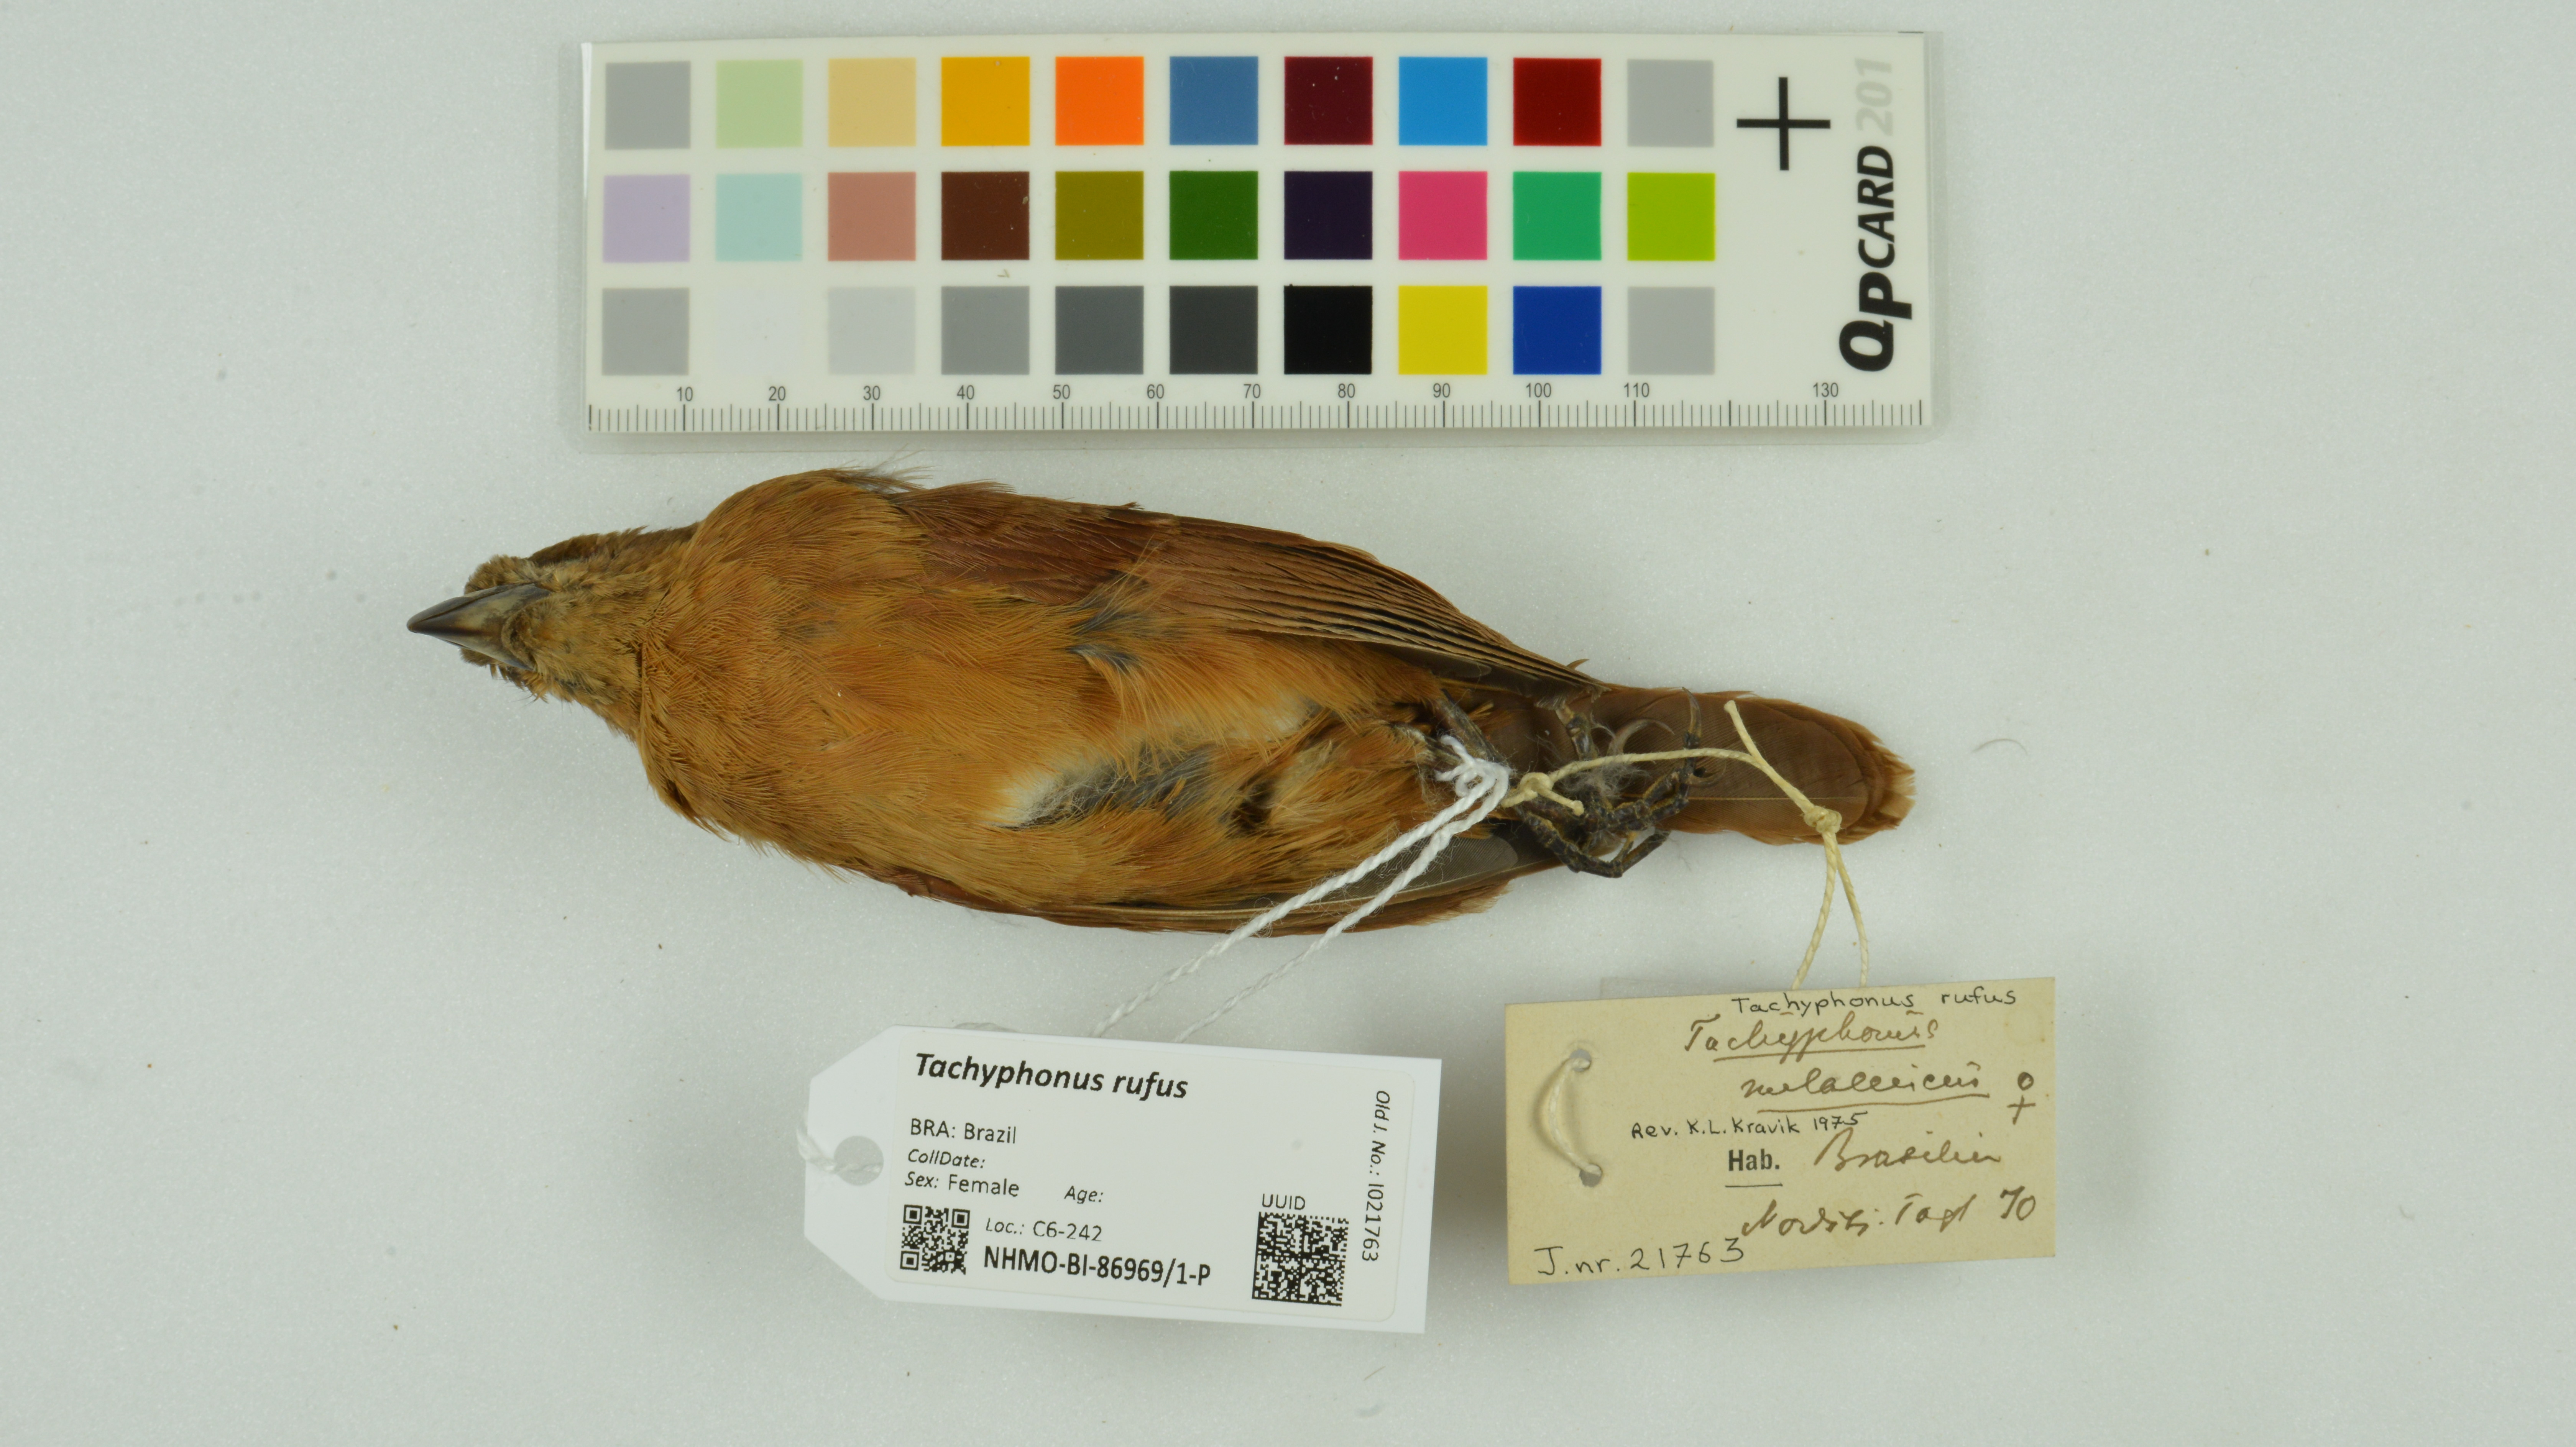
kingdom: Animalia
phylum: Chordata
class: Aves
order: Passeriformes
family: Thraupidae
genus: Tachyphonus
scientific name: Tachyphonus rufus
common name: White-lined tanager
